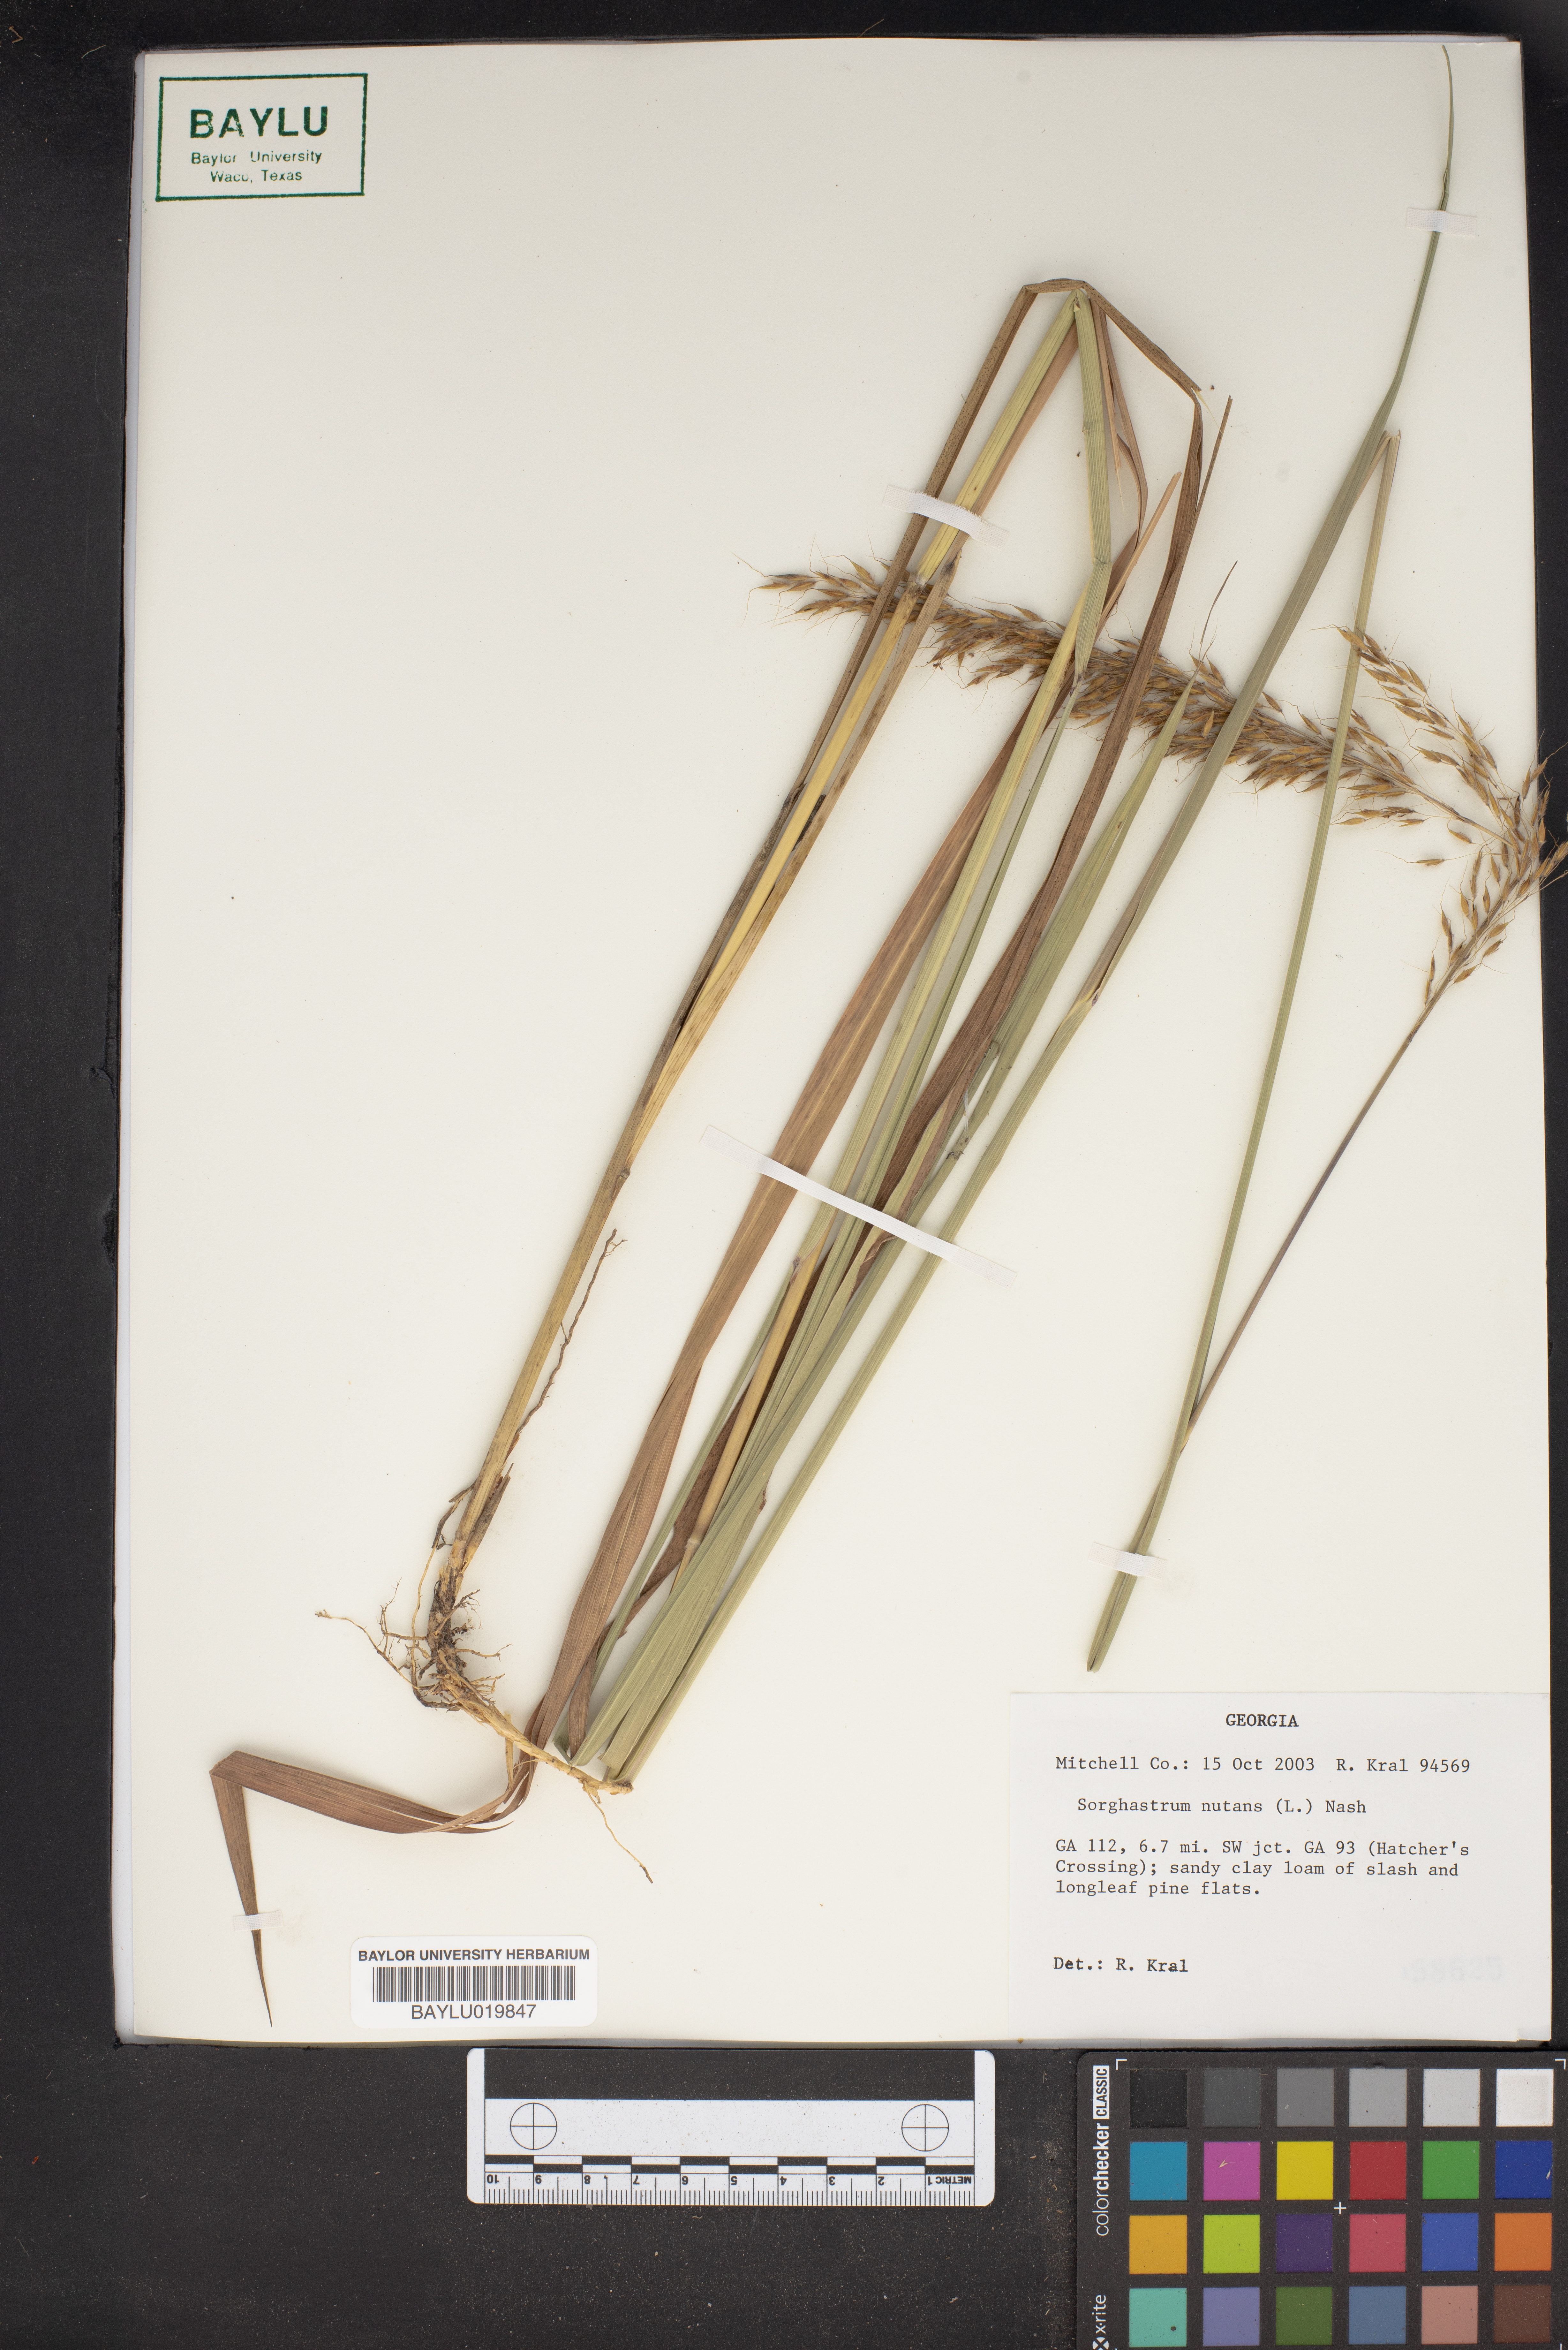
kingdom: Plantae
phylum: Tracheophyta
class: Liliopsida
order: Poales
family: Poaceae
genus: Sorghastrum
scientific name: Sorghastrum nutans
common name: Indian grass
